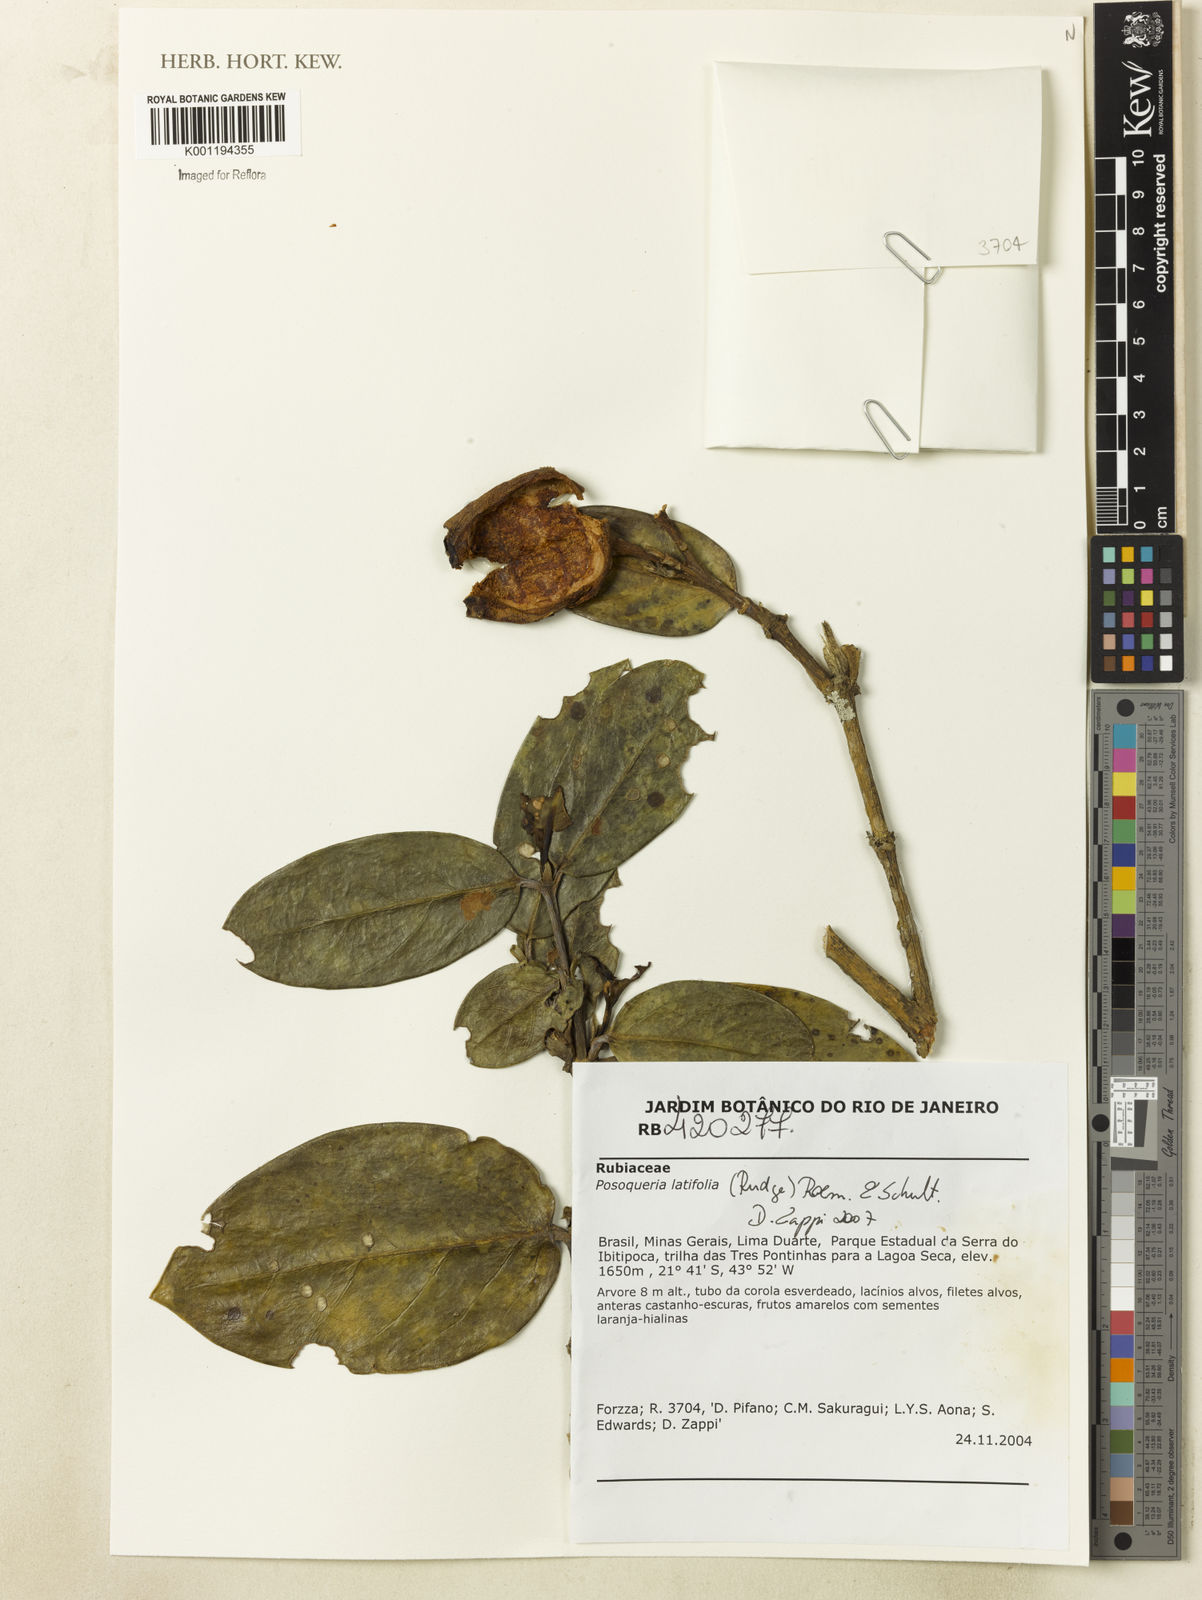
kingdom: Plantae
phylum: Tracheophyta
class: Magnoliopsida
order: Gentianales
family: Rubiaceae
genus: Posoqueria
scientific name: Posoqueria latifolia
